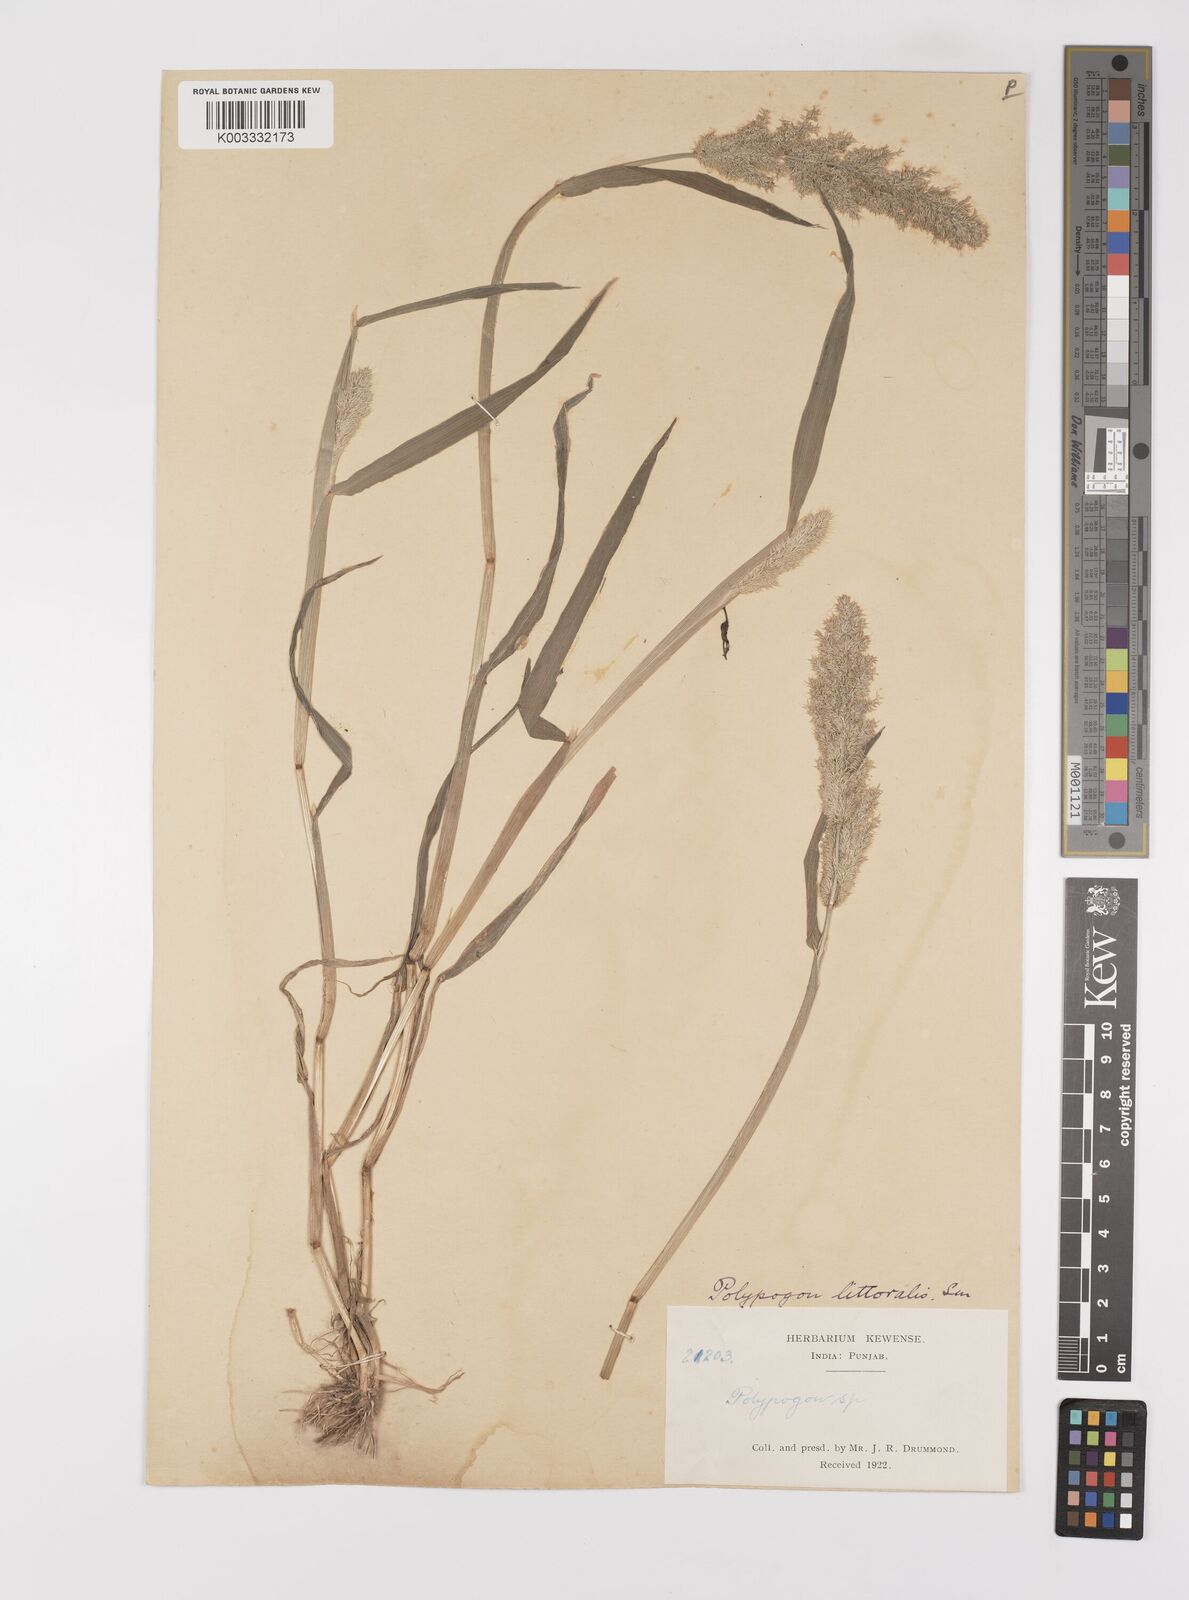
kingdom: Plantae
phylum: Tracheophyta
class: Liliopsida
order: Poales
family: Poaceae
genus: Polypogon
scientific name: Polypogon fugax
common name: Asia minor bluegrass
